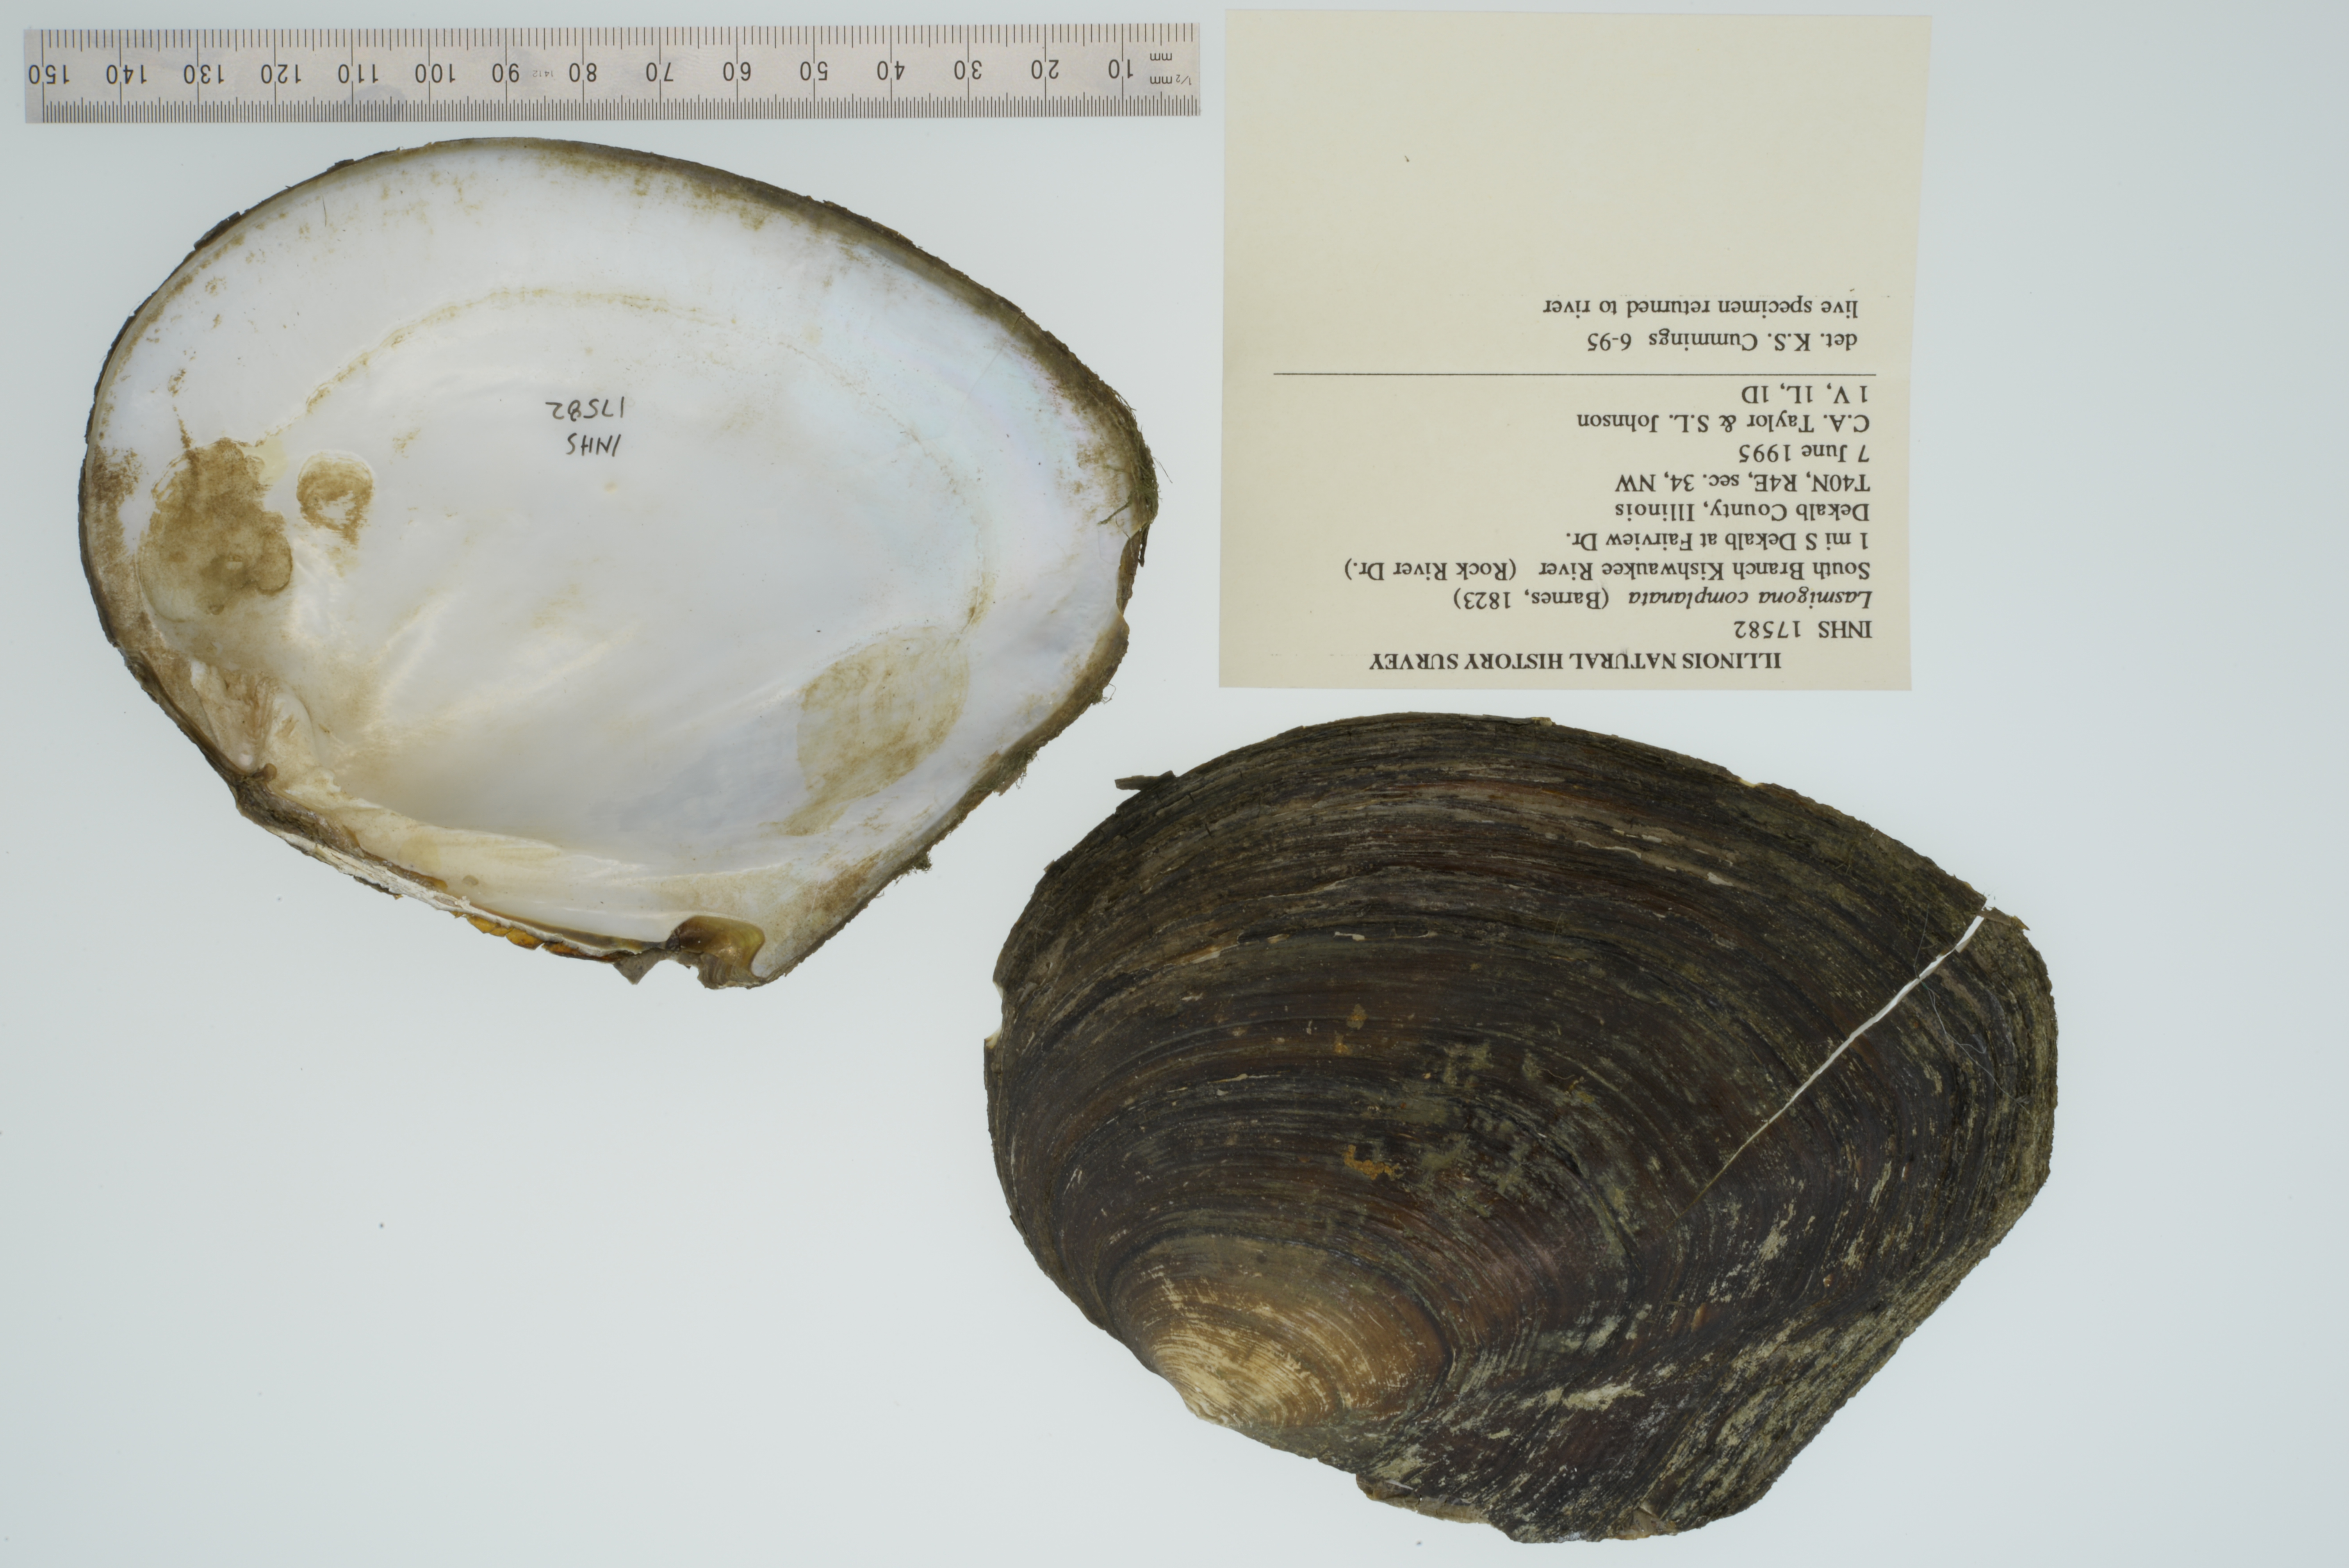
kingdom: Animalia
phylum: Mollusca
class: Bivalvia
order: Unionida
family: Unionidae
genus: Lasmigona
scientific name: Lasmigona complanata
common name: White heelsplitter
